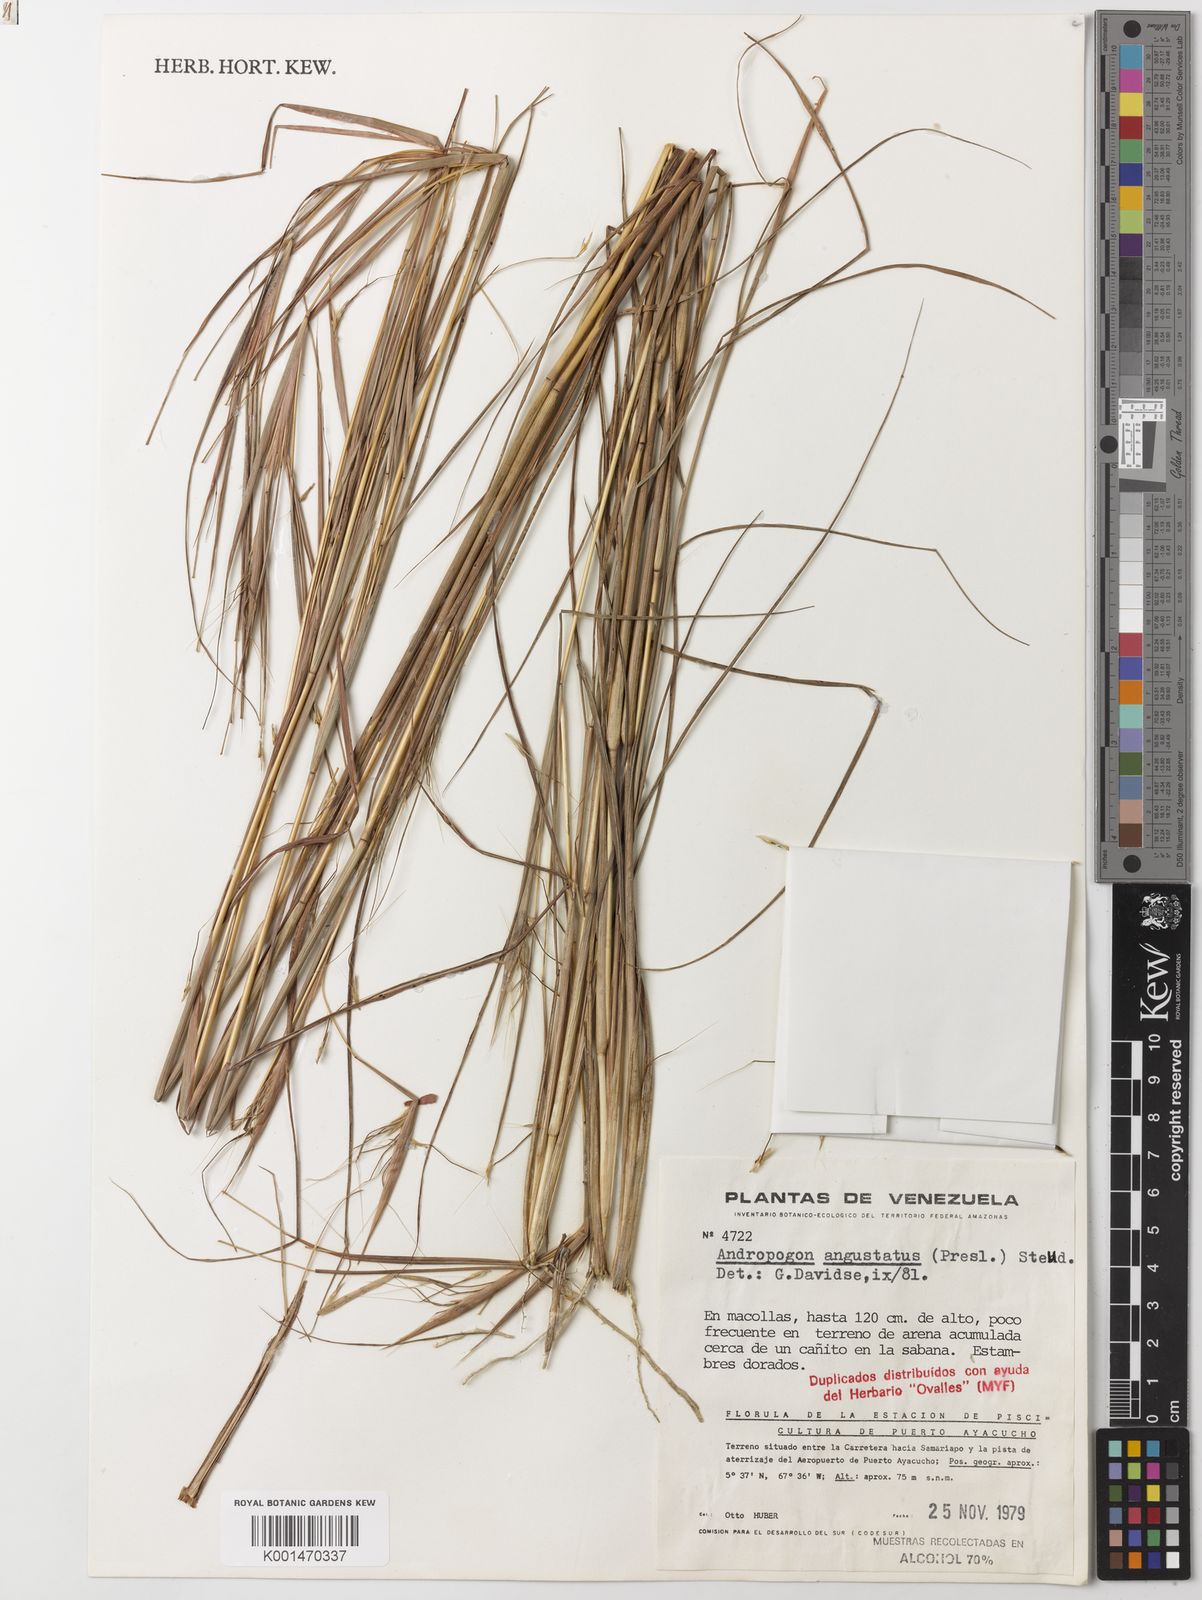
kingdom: Plantae
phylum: Tracheophyta
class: Liliopsida
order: Poales
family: Poaceae
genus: Andropogon
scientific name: Andropogon angustatus
